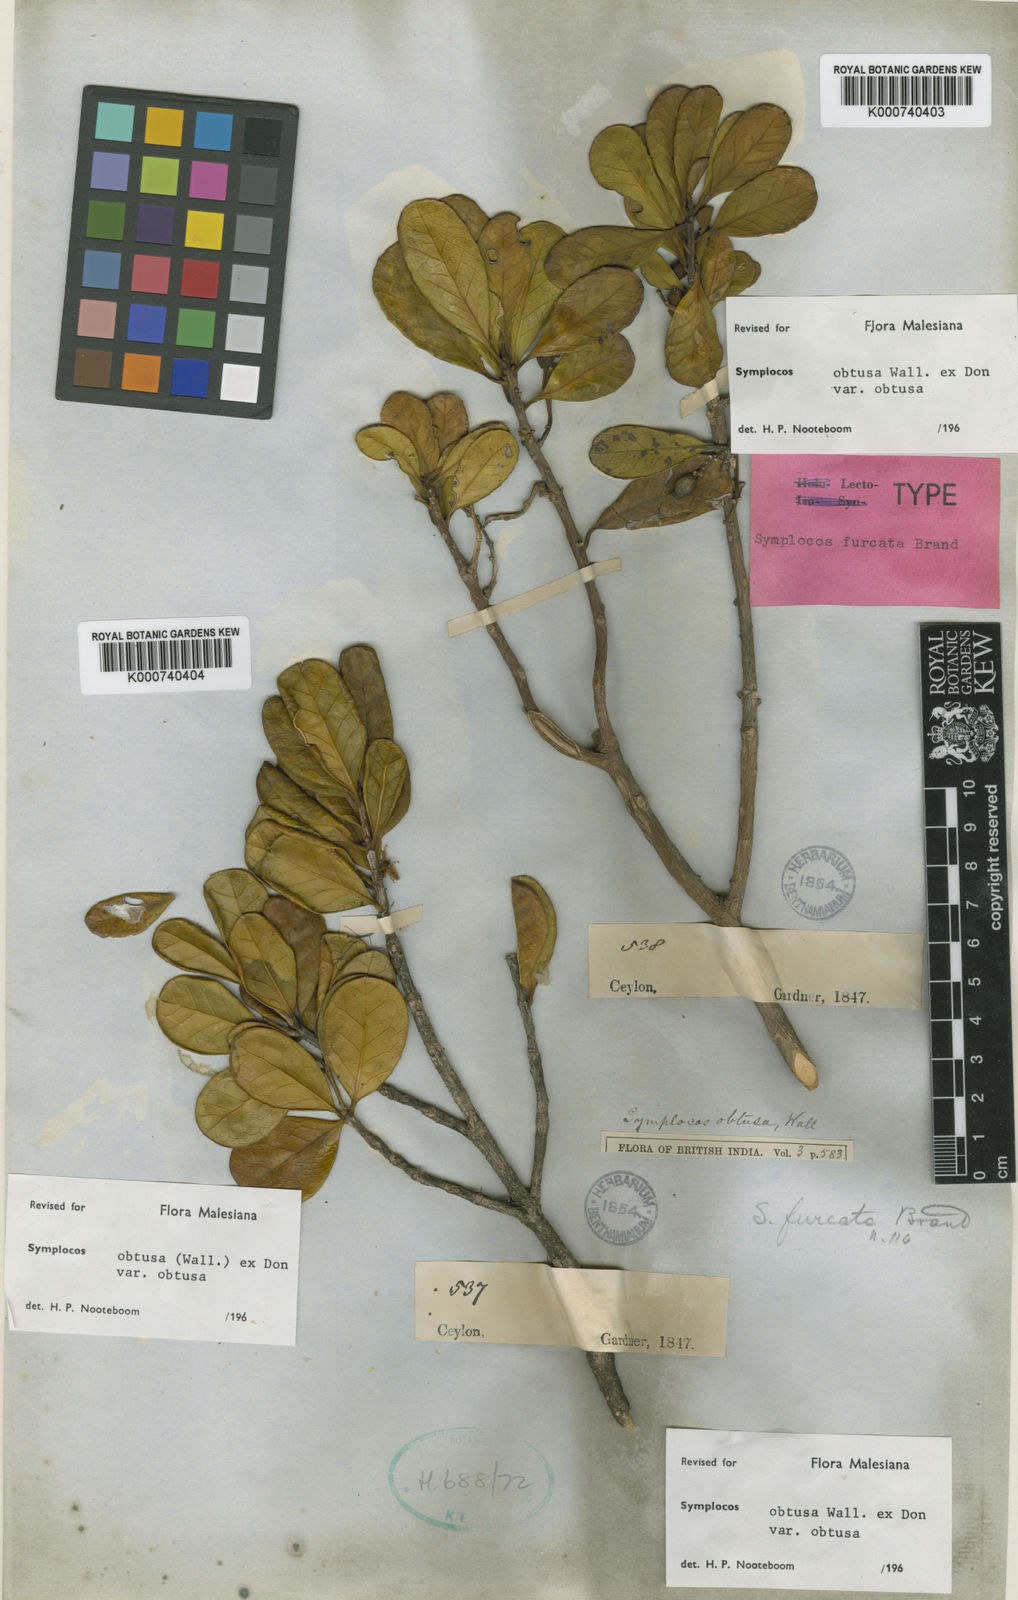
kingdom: Plantae
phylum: Tracheophyta
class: Magnoliopsida
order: Ericales
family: Symplocaceae
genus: Symplocos
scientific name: Symplocos
